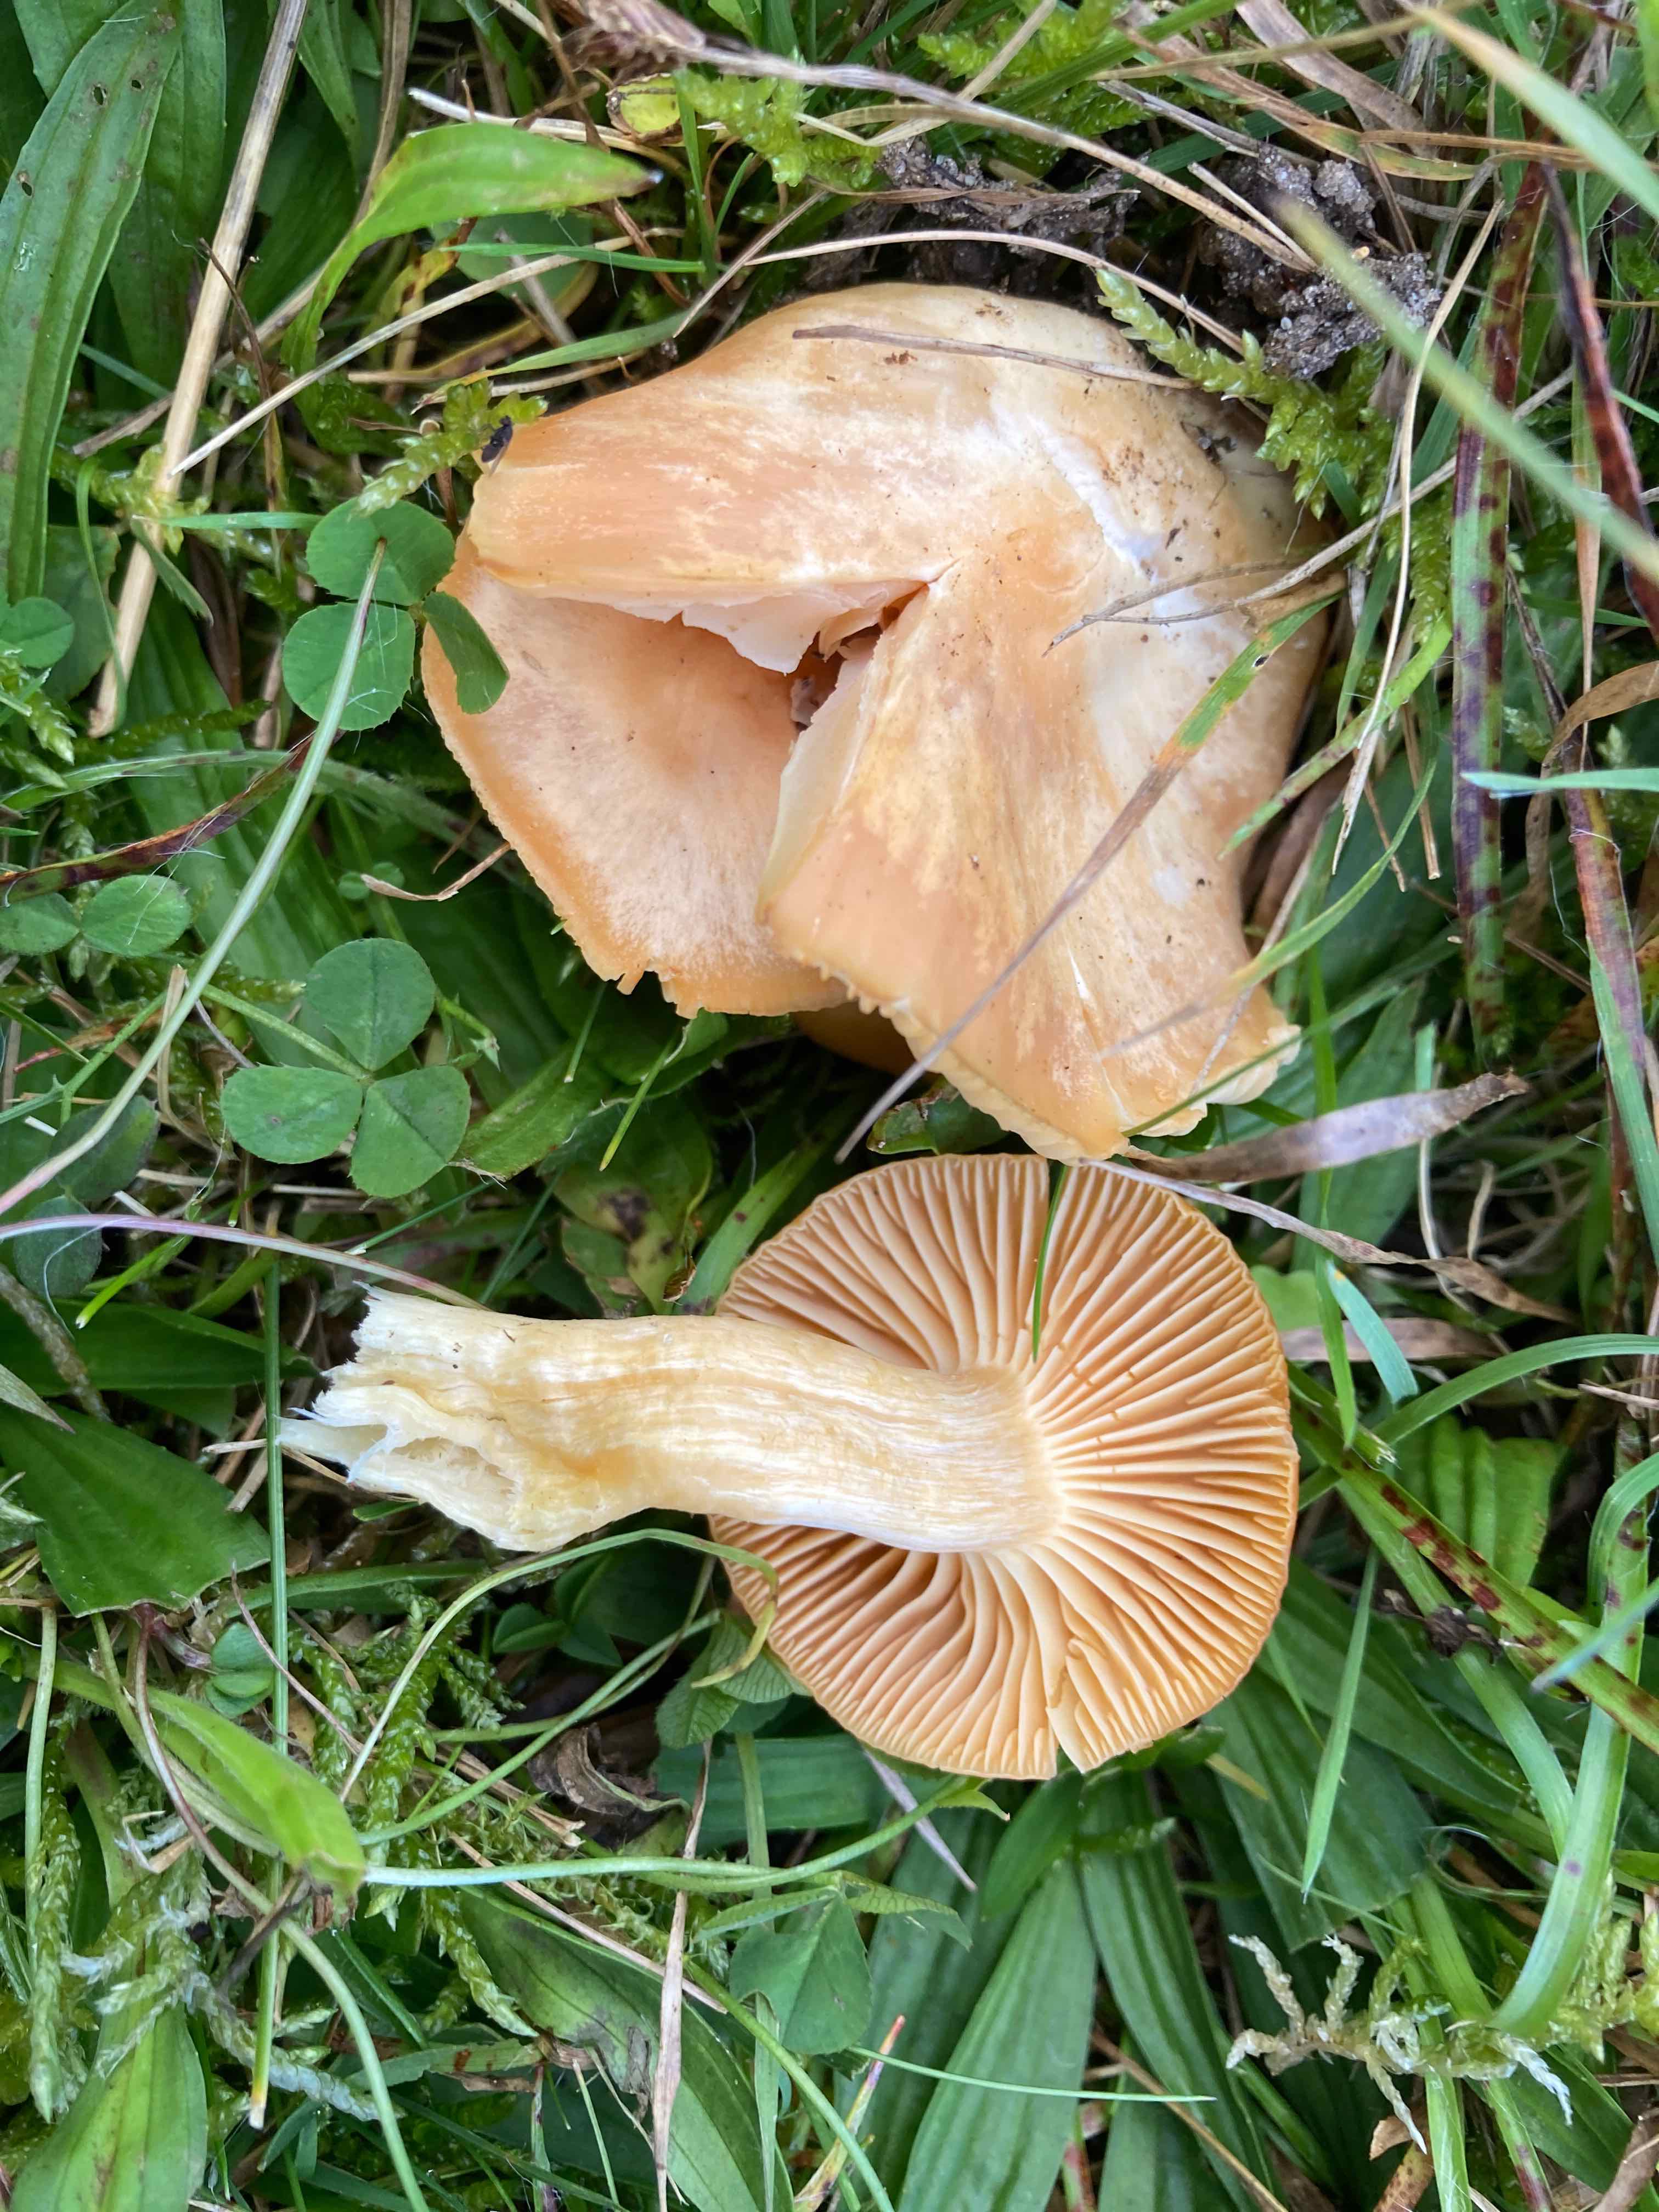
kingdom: Fungi
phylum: Basidiomycota
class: Agaricomycetes
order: Agaricales
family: Hygrophoraceae
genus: Cuphophyllus
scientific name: Cuphophyllus pratensis
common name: eng-vokshat
